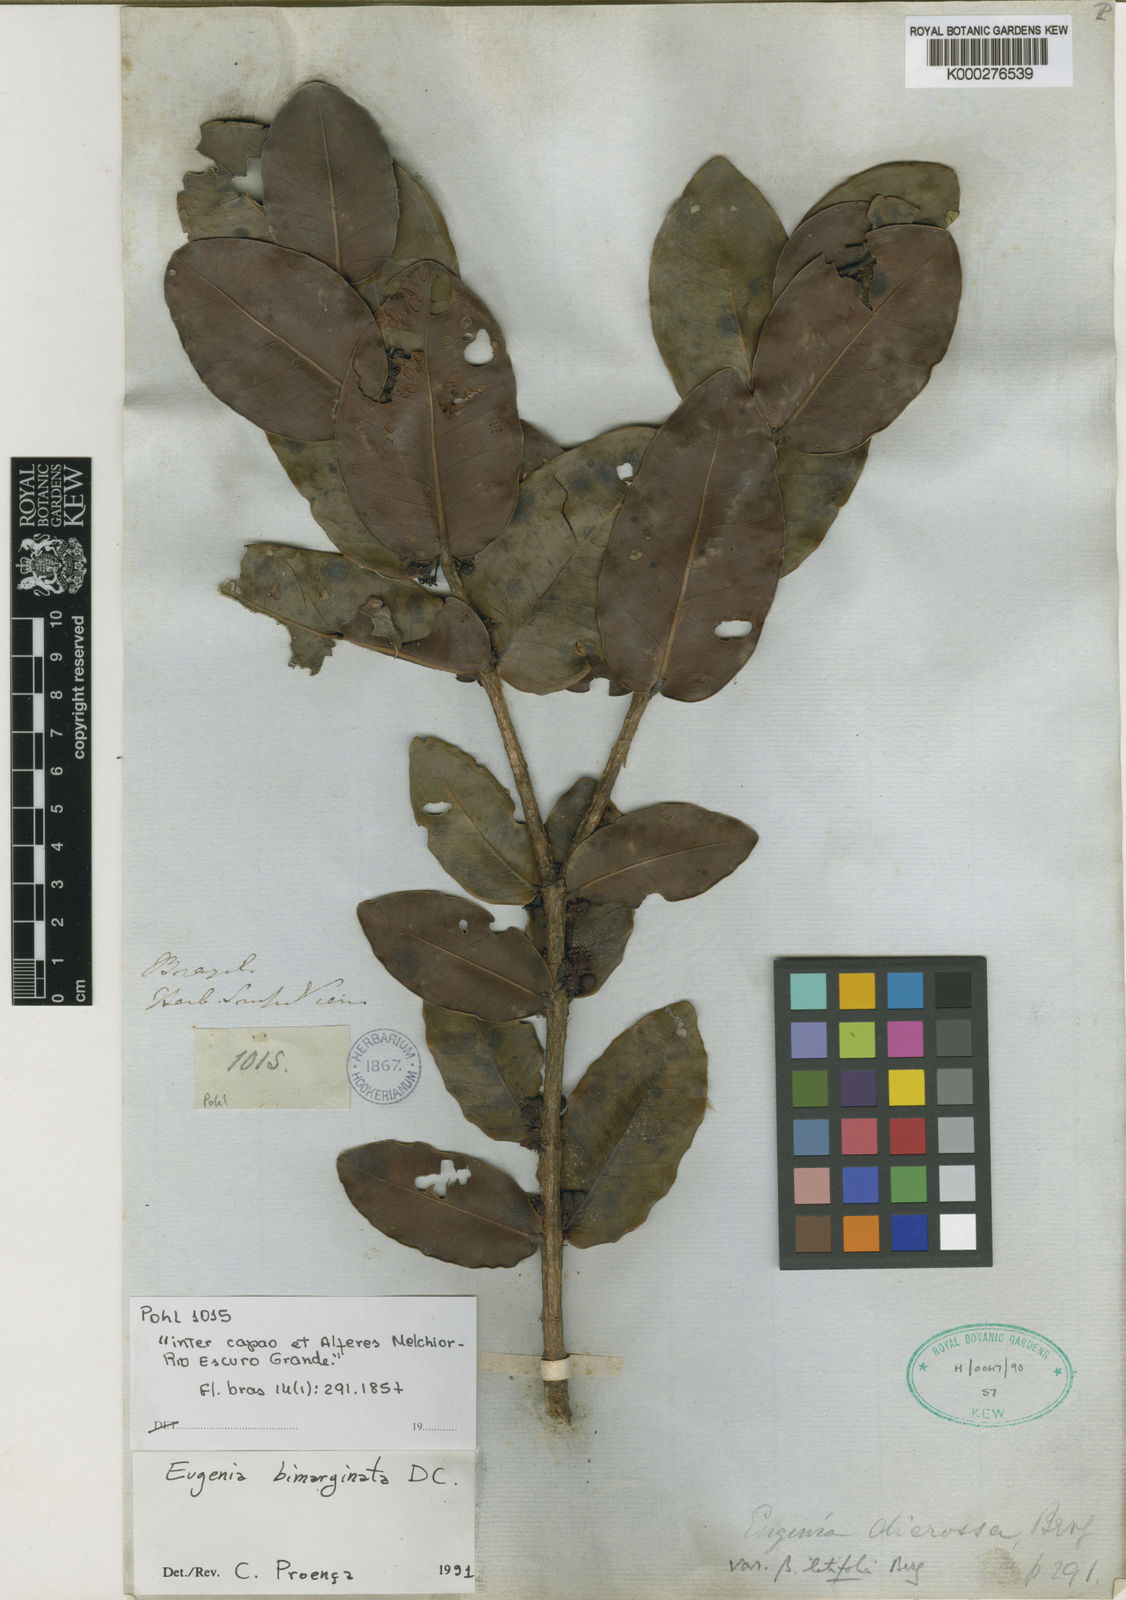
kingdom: Plantae
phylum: Tracheophyta
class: Magnoliopsida
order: Myrtales
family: Myrtaceae
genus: Eugenia
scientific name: Eugenia bimarginata
